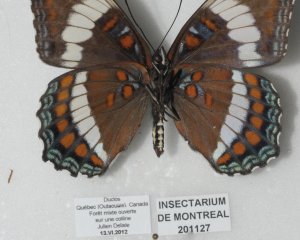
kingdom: Animalia
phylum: Arthropoda
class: Insecta
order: Lepidoptera
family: Nymphalidae
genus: Limenitis
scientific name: Limenitis arthemis
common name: Red-spotted Admiral
